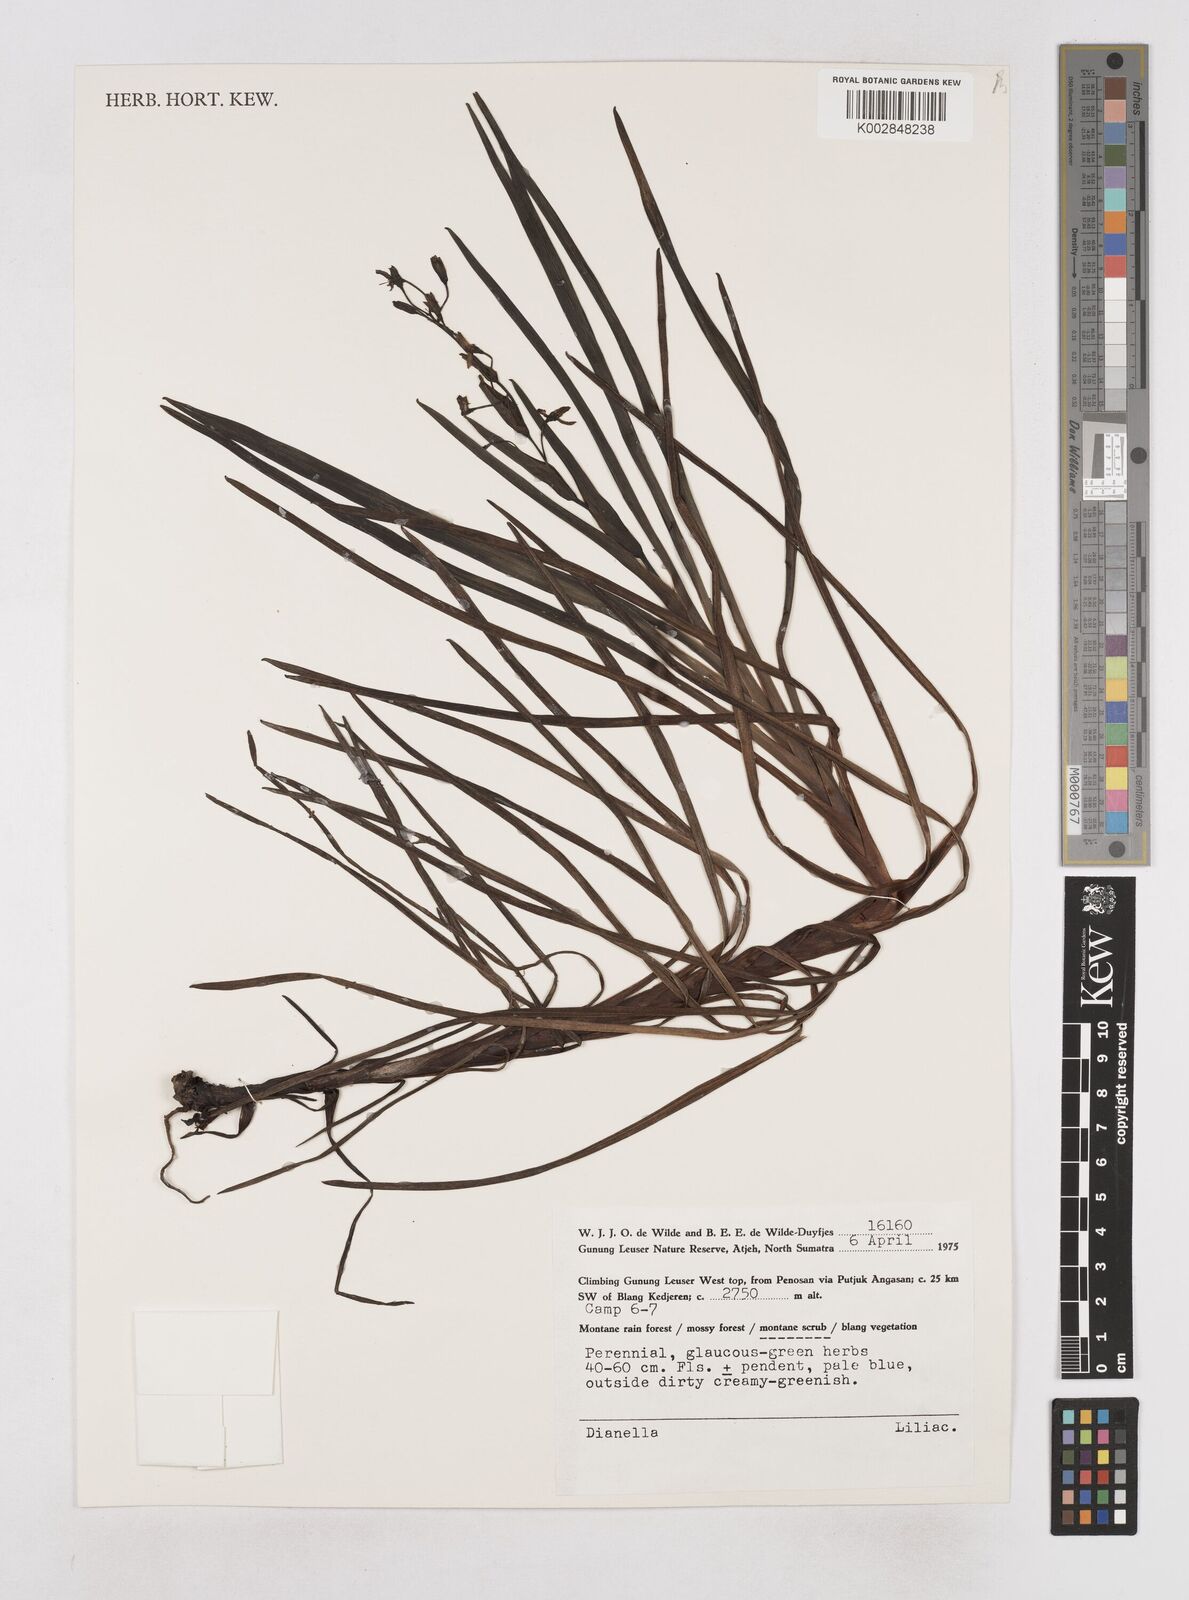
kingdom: Plantae
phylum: Tracheophyta
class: Liliopsida
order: Asparagales
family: Asphodelaceae
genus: Dianella
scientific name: Dianella
